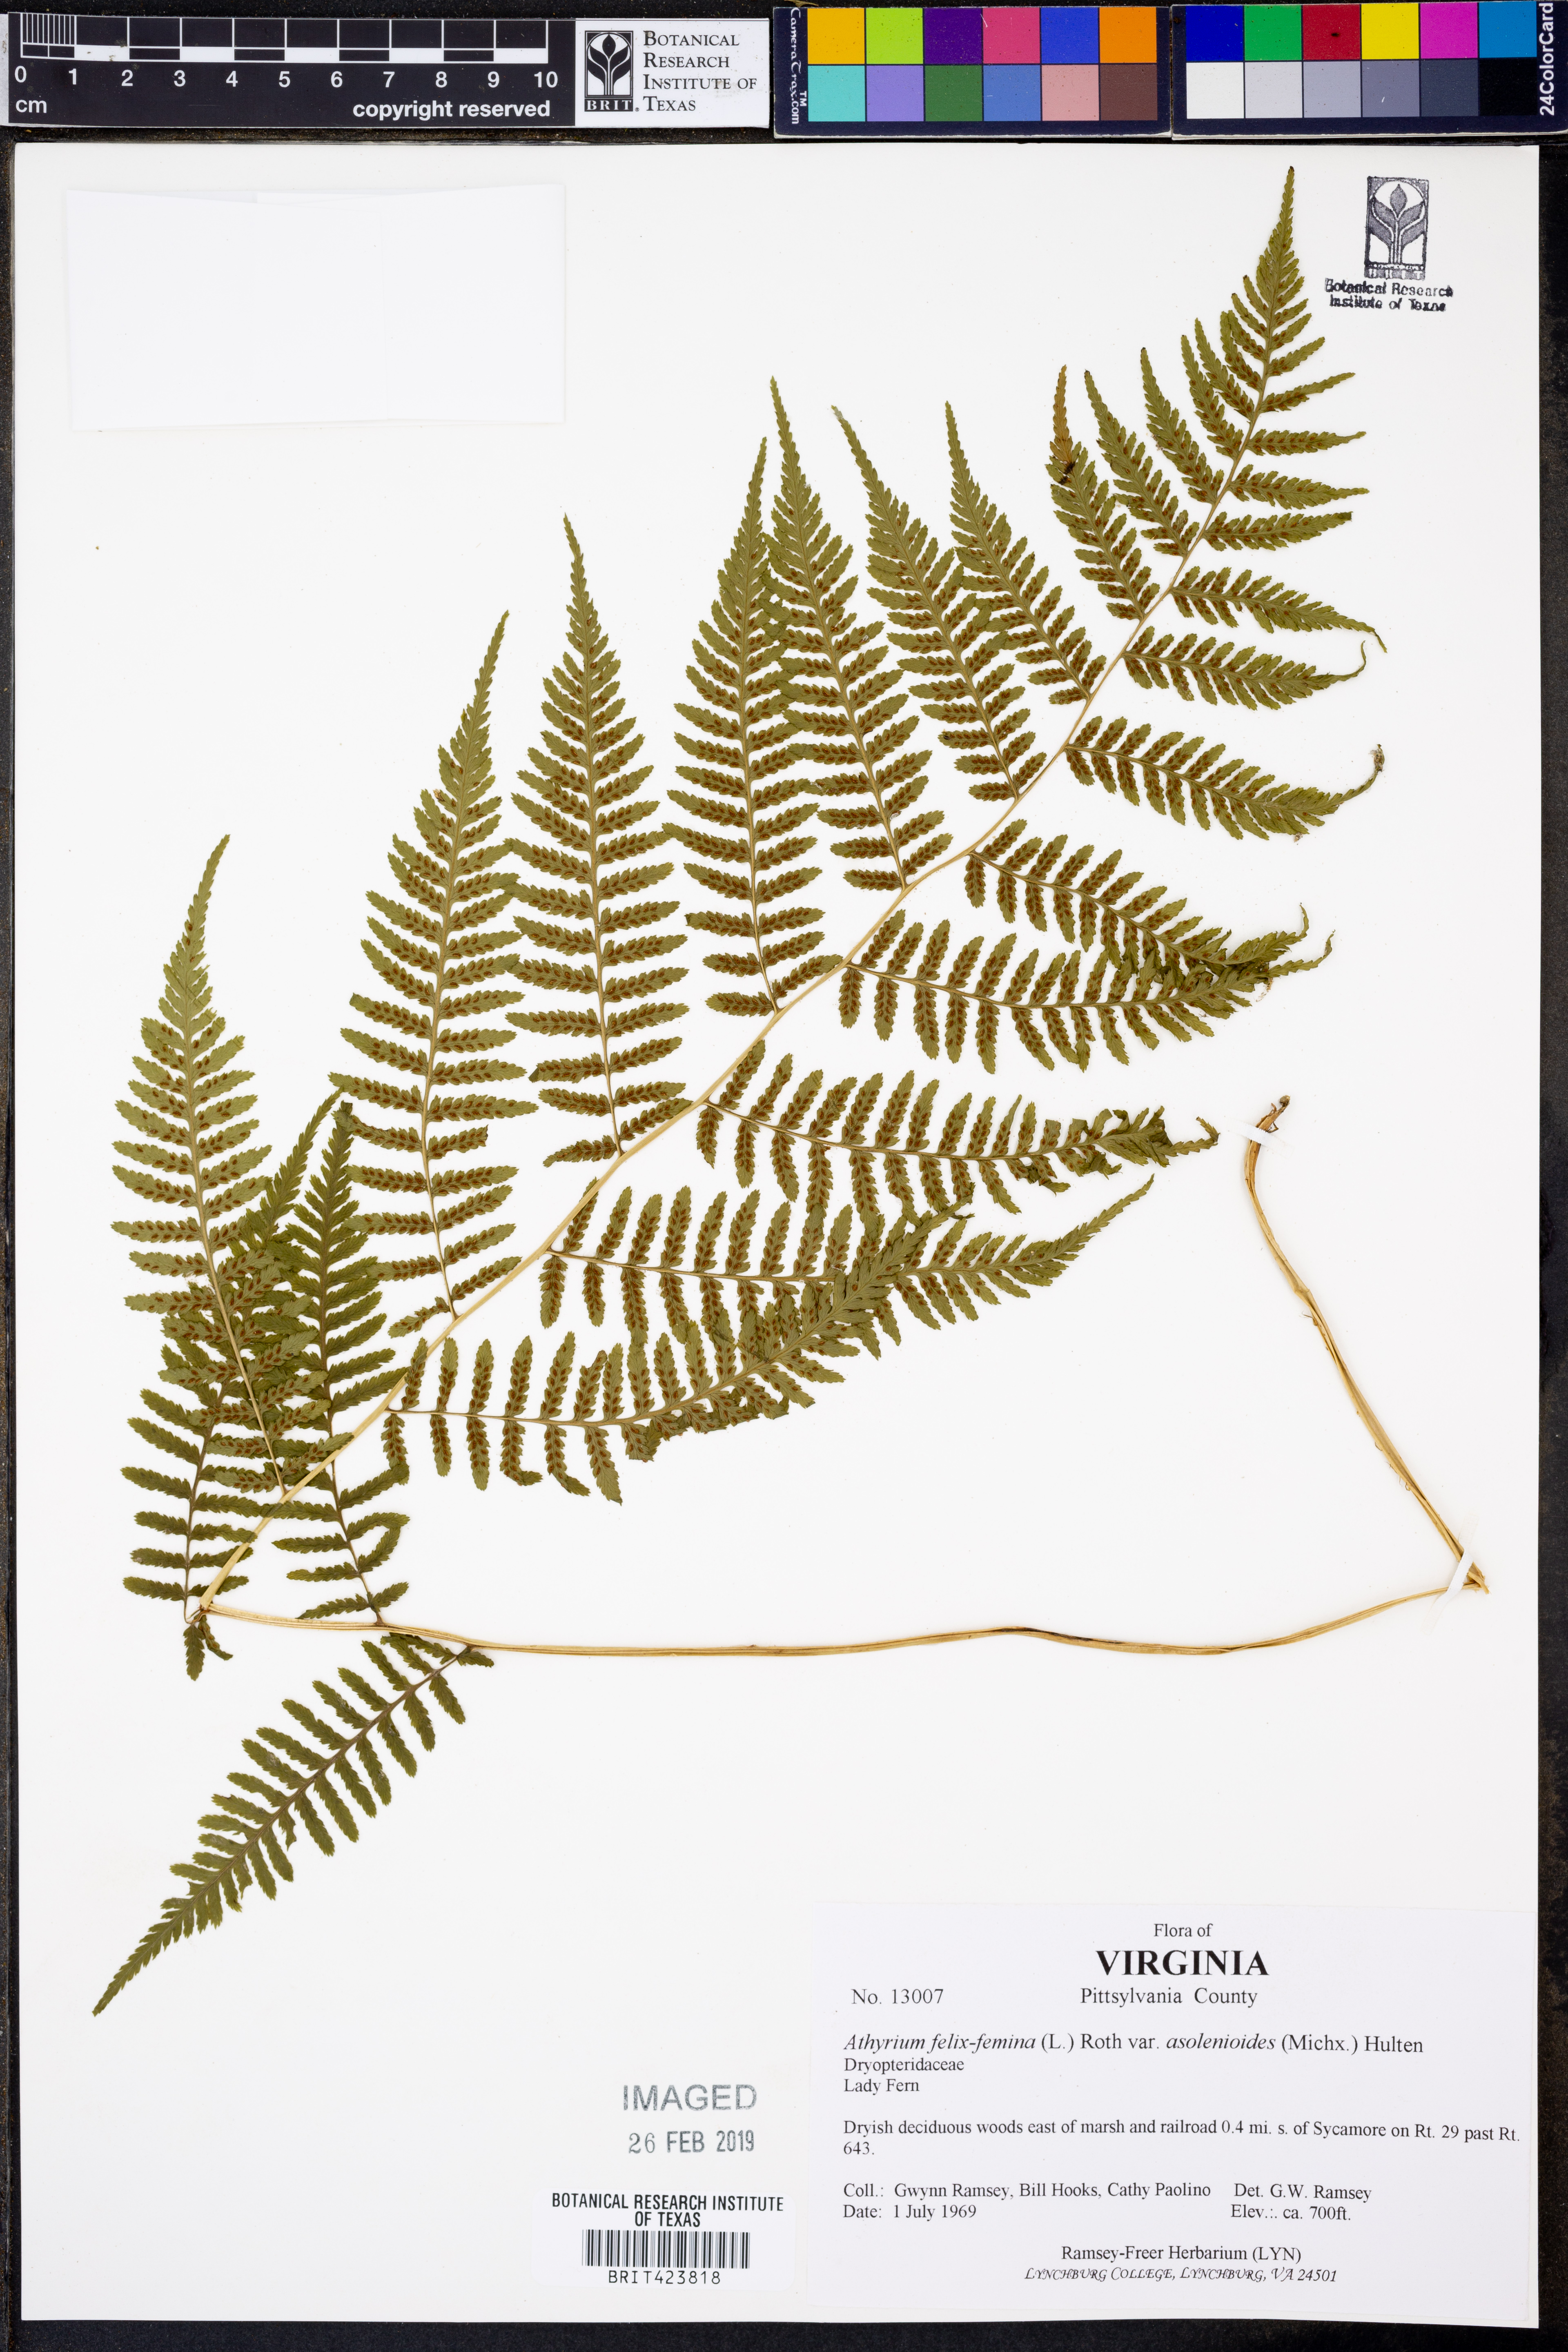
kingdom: Plantae
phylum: Tracheophyta
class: Polypodiopsida
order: Polypodiales
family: Athyriaceae
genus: Athyrium
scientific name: Athyrium asplenioides
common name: Southern lady fern
